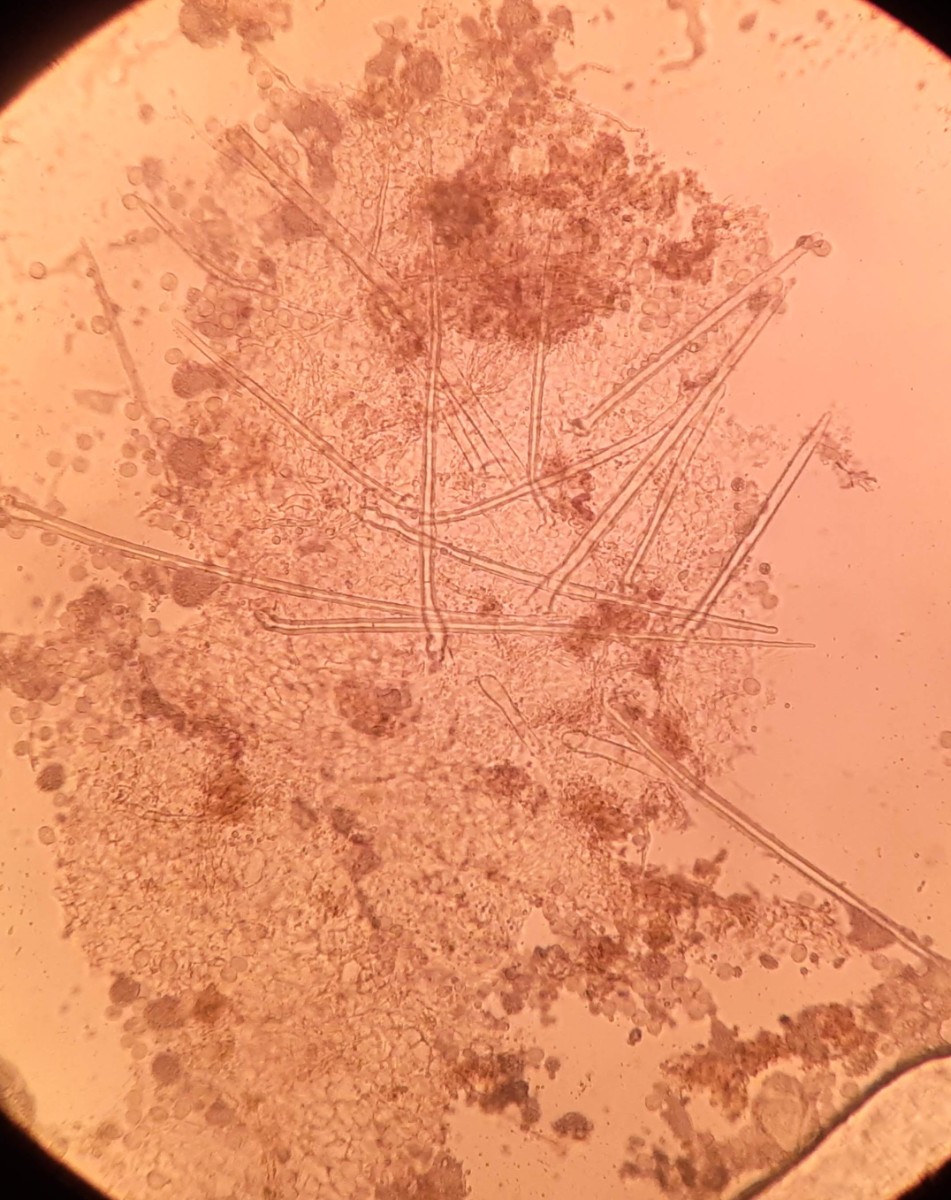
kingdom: Fungi
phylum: Ascomycota
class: Pezizomycetes
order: Pezizales
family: Ascodesmidaceae
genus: Trichobolus
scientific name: Trichobolus zukalii
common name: ægsporet småbæger
